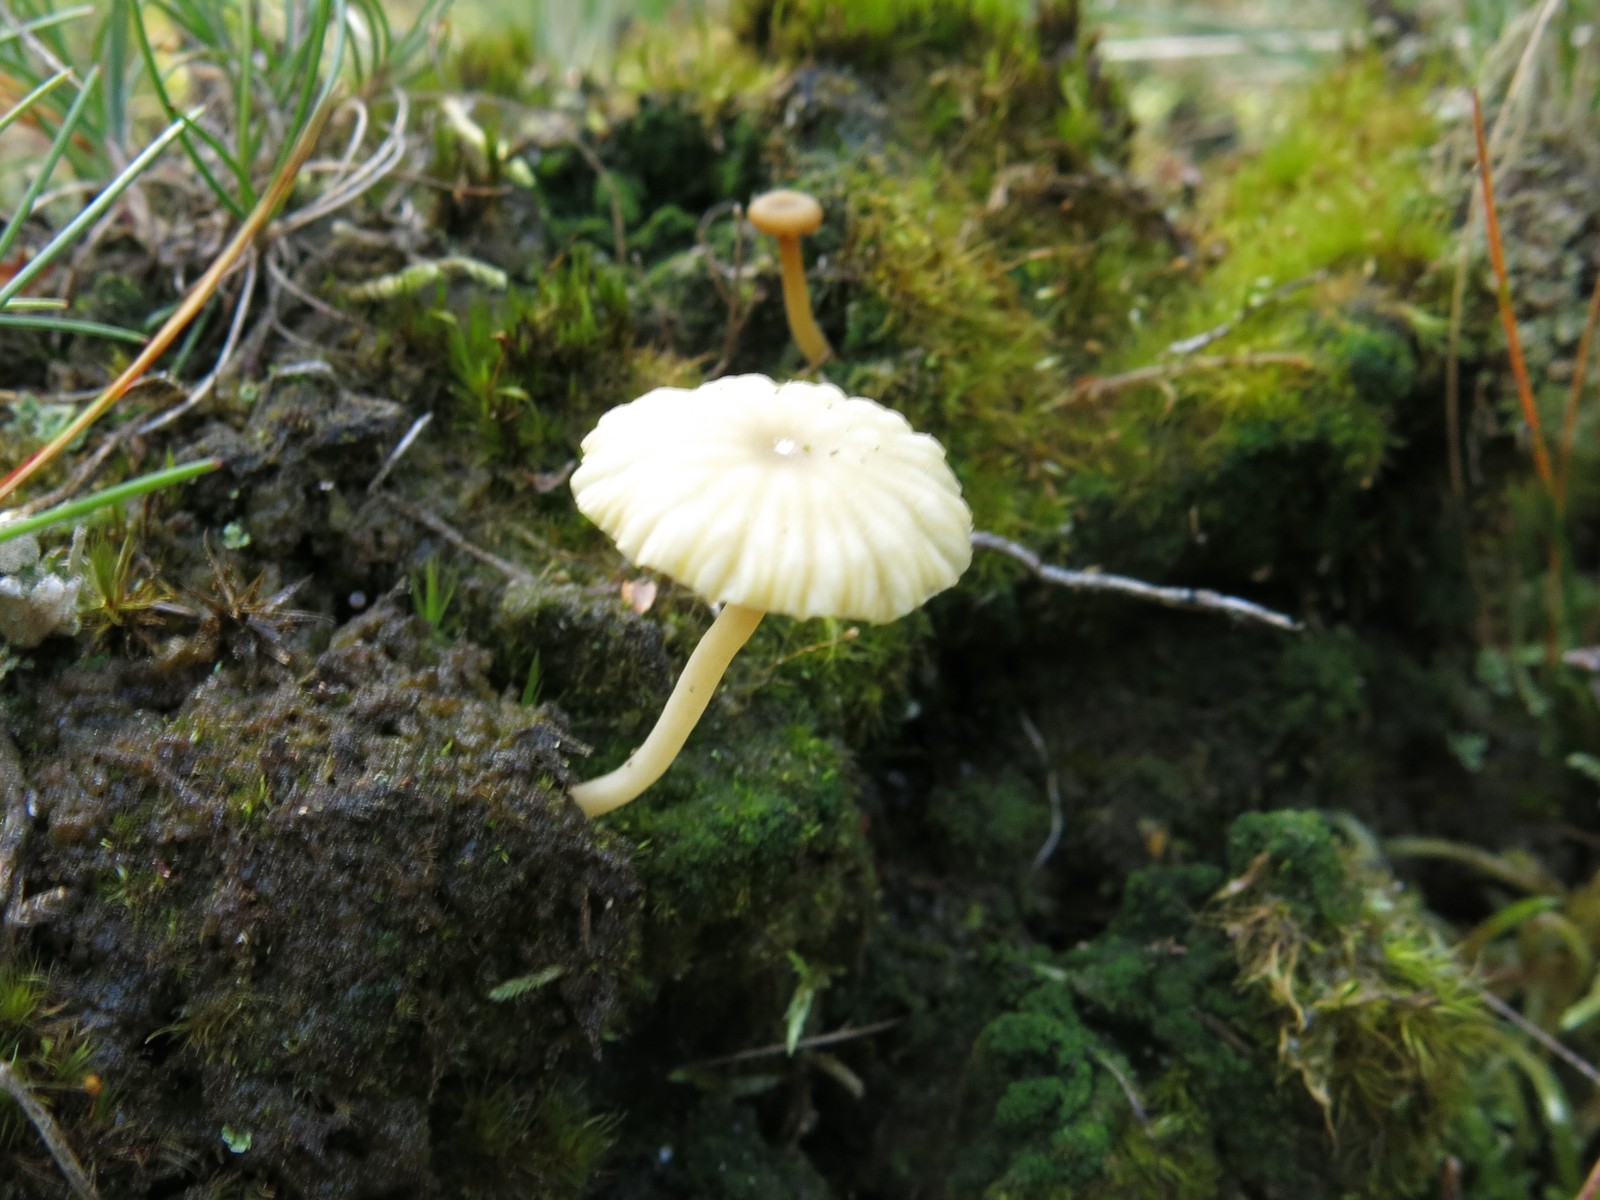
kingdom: Fungi
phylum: Basidiomycota
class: Agaricomycetes
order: Agaricales
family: Hygrophoraceae
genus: Lichenomphalia
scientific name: Lichenomphalia umbellifera
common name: tørve-lavhat
